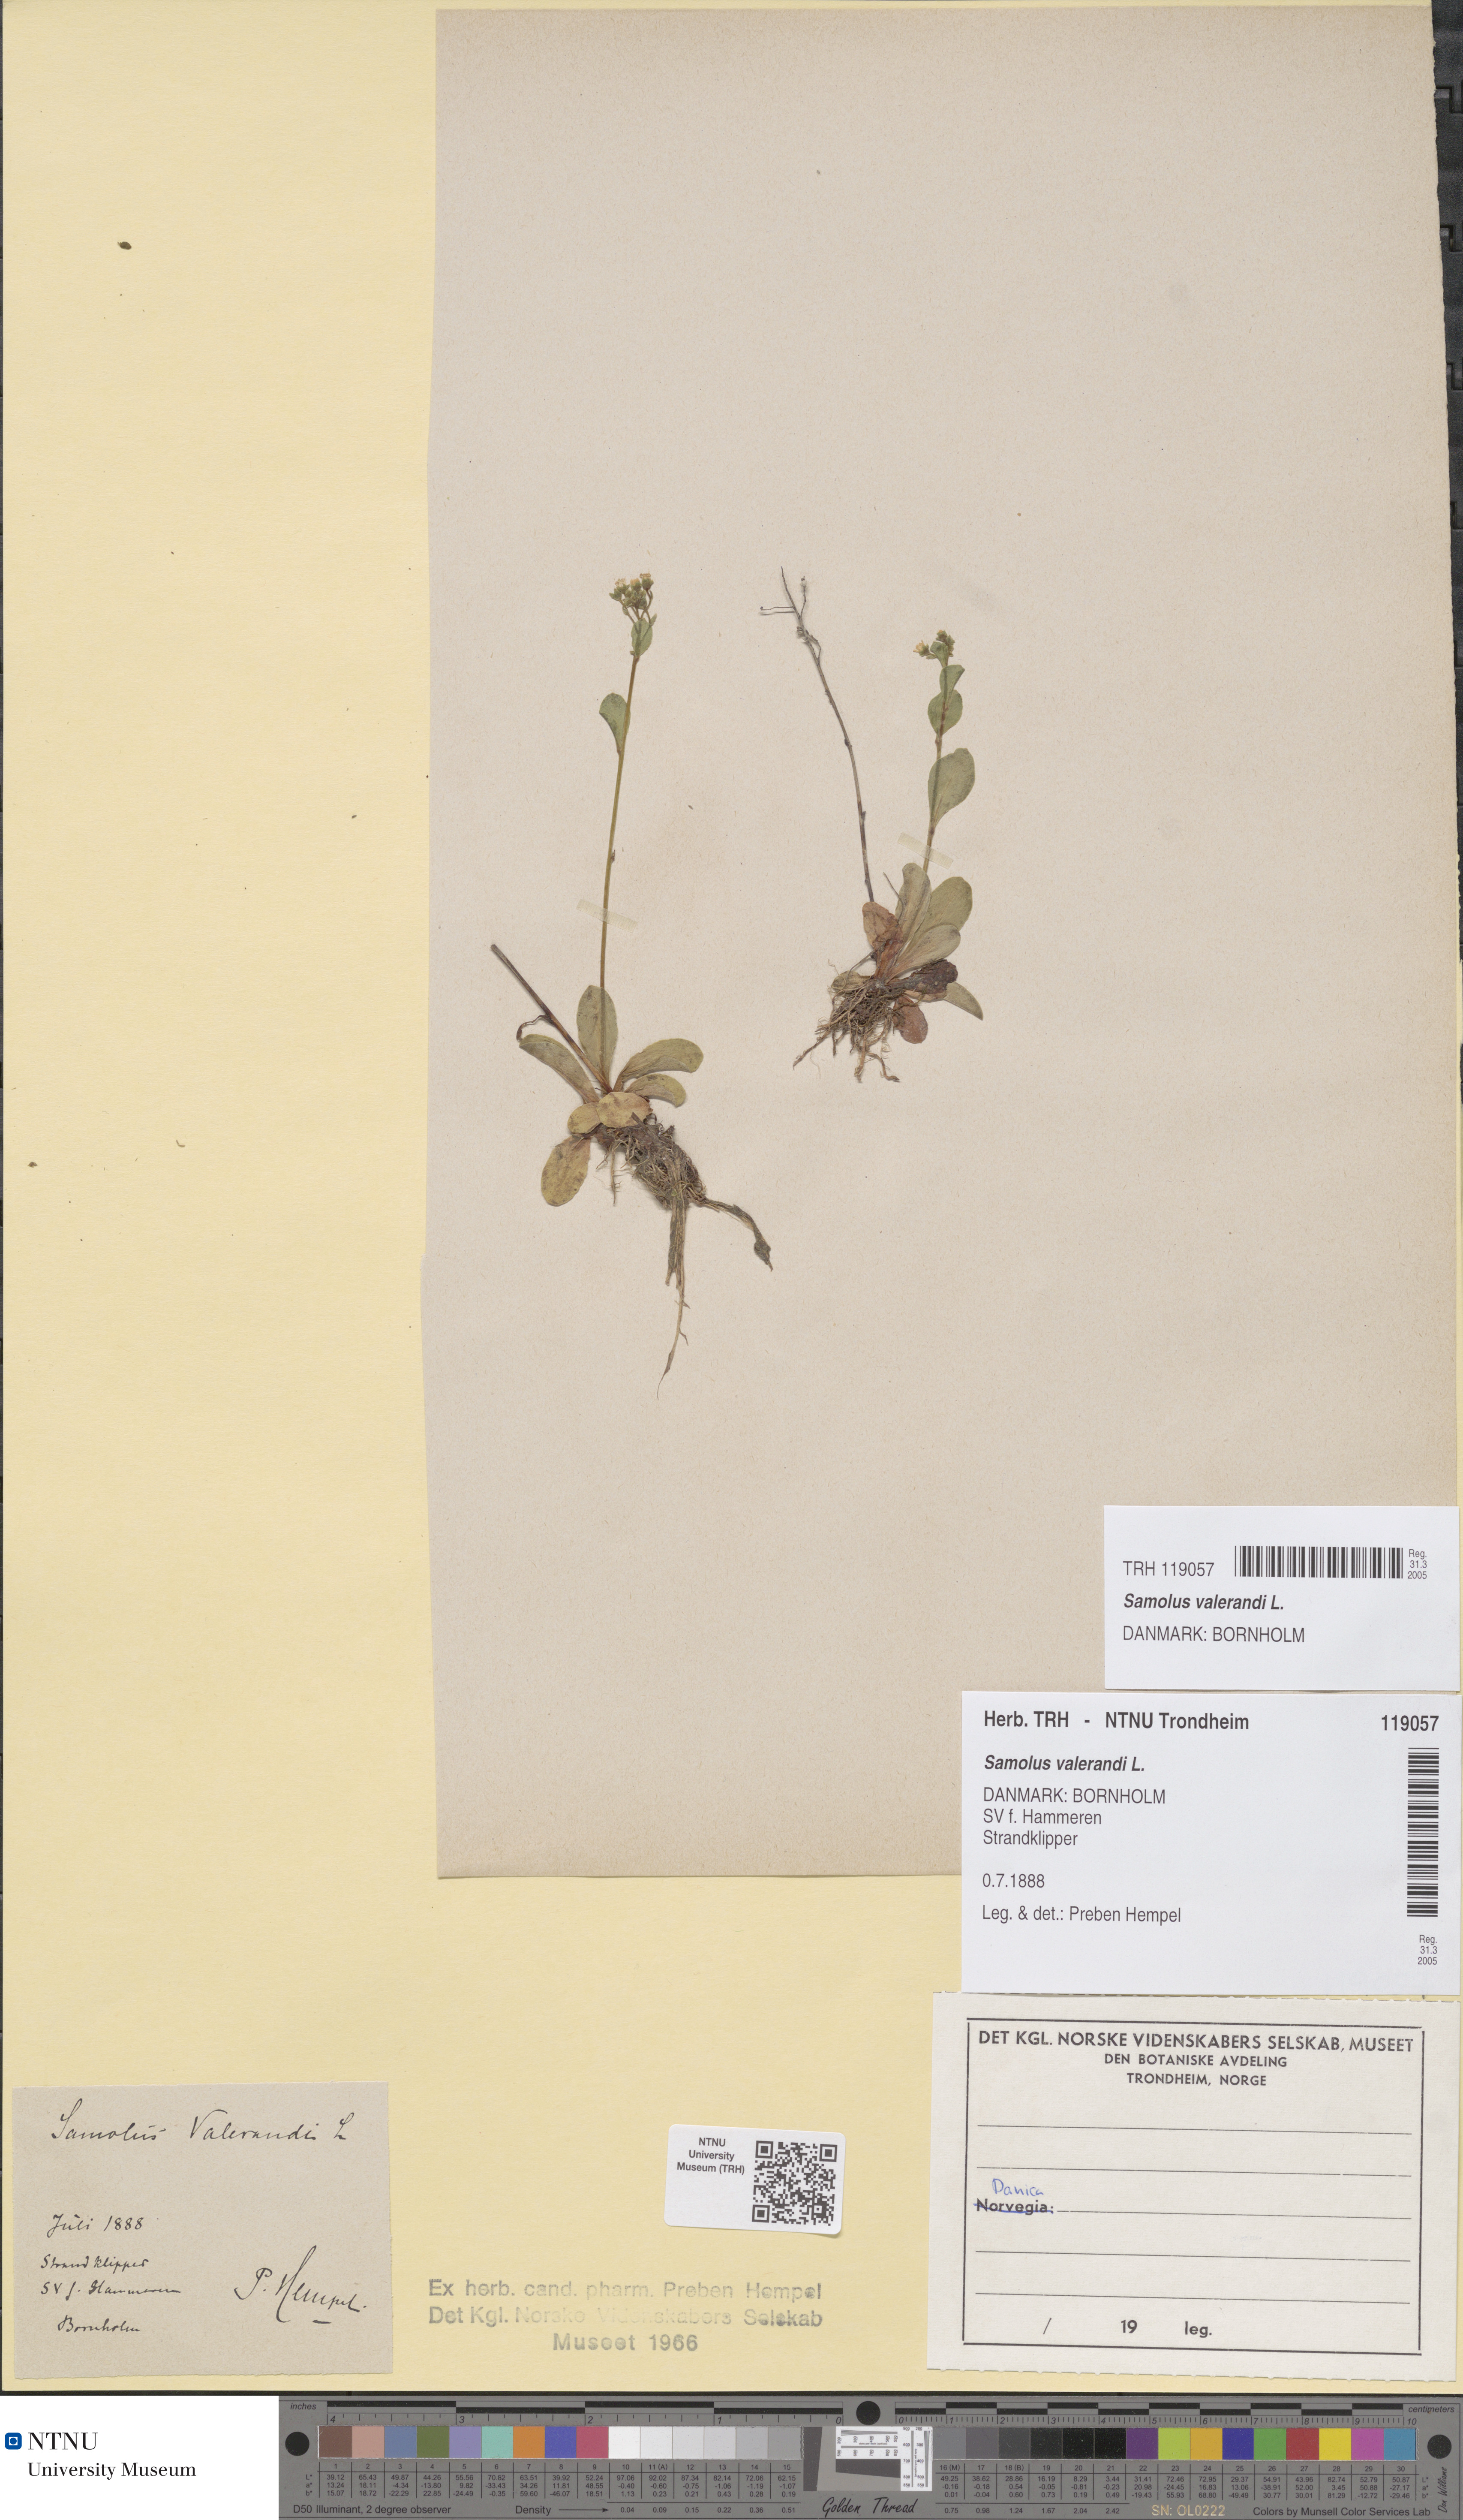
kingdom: Plantae
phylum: Tracheophyta
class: Magnoliopsida
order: Ericales
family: Primulaceae
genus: Samolus
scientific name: Samolus valerandi
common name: Brookweed
